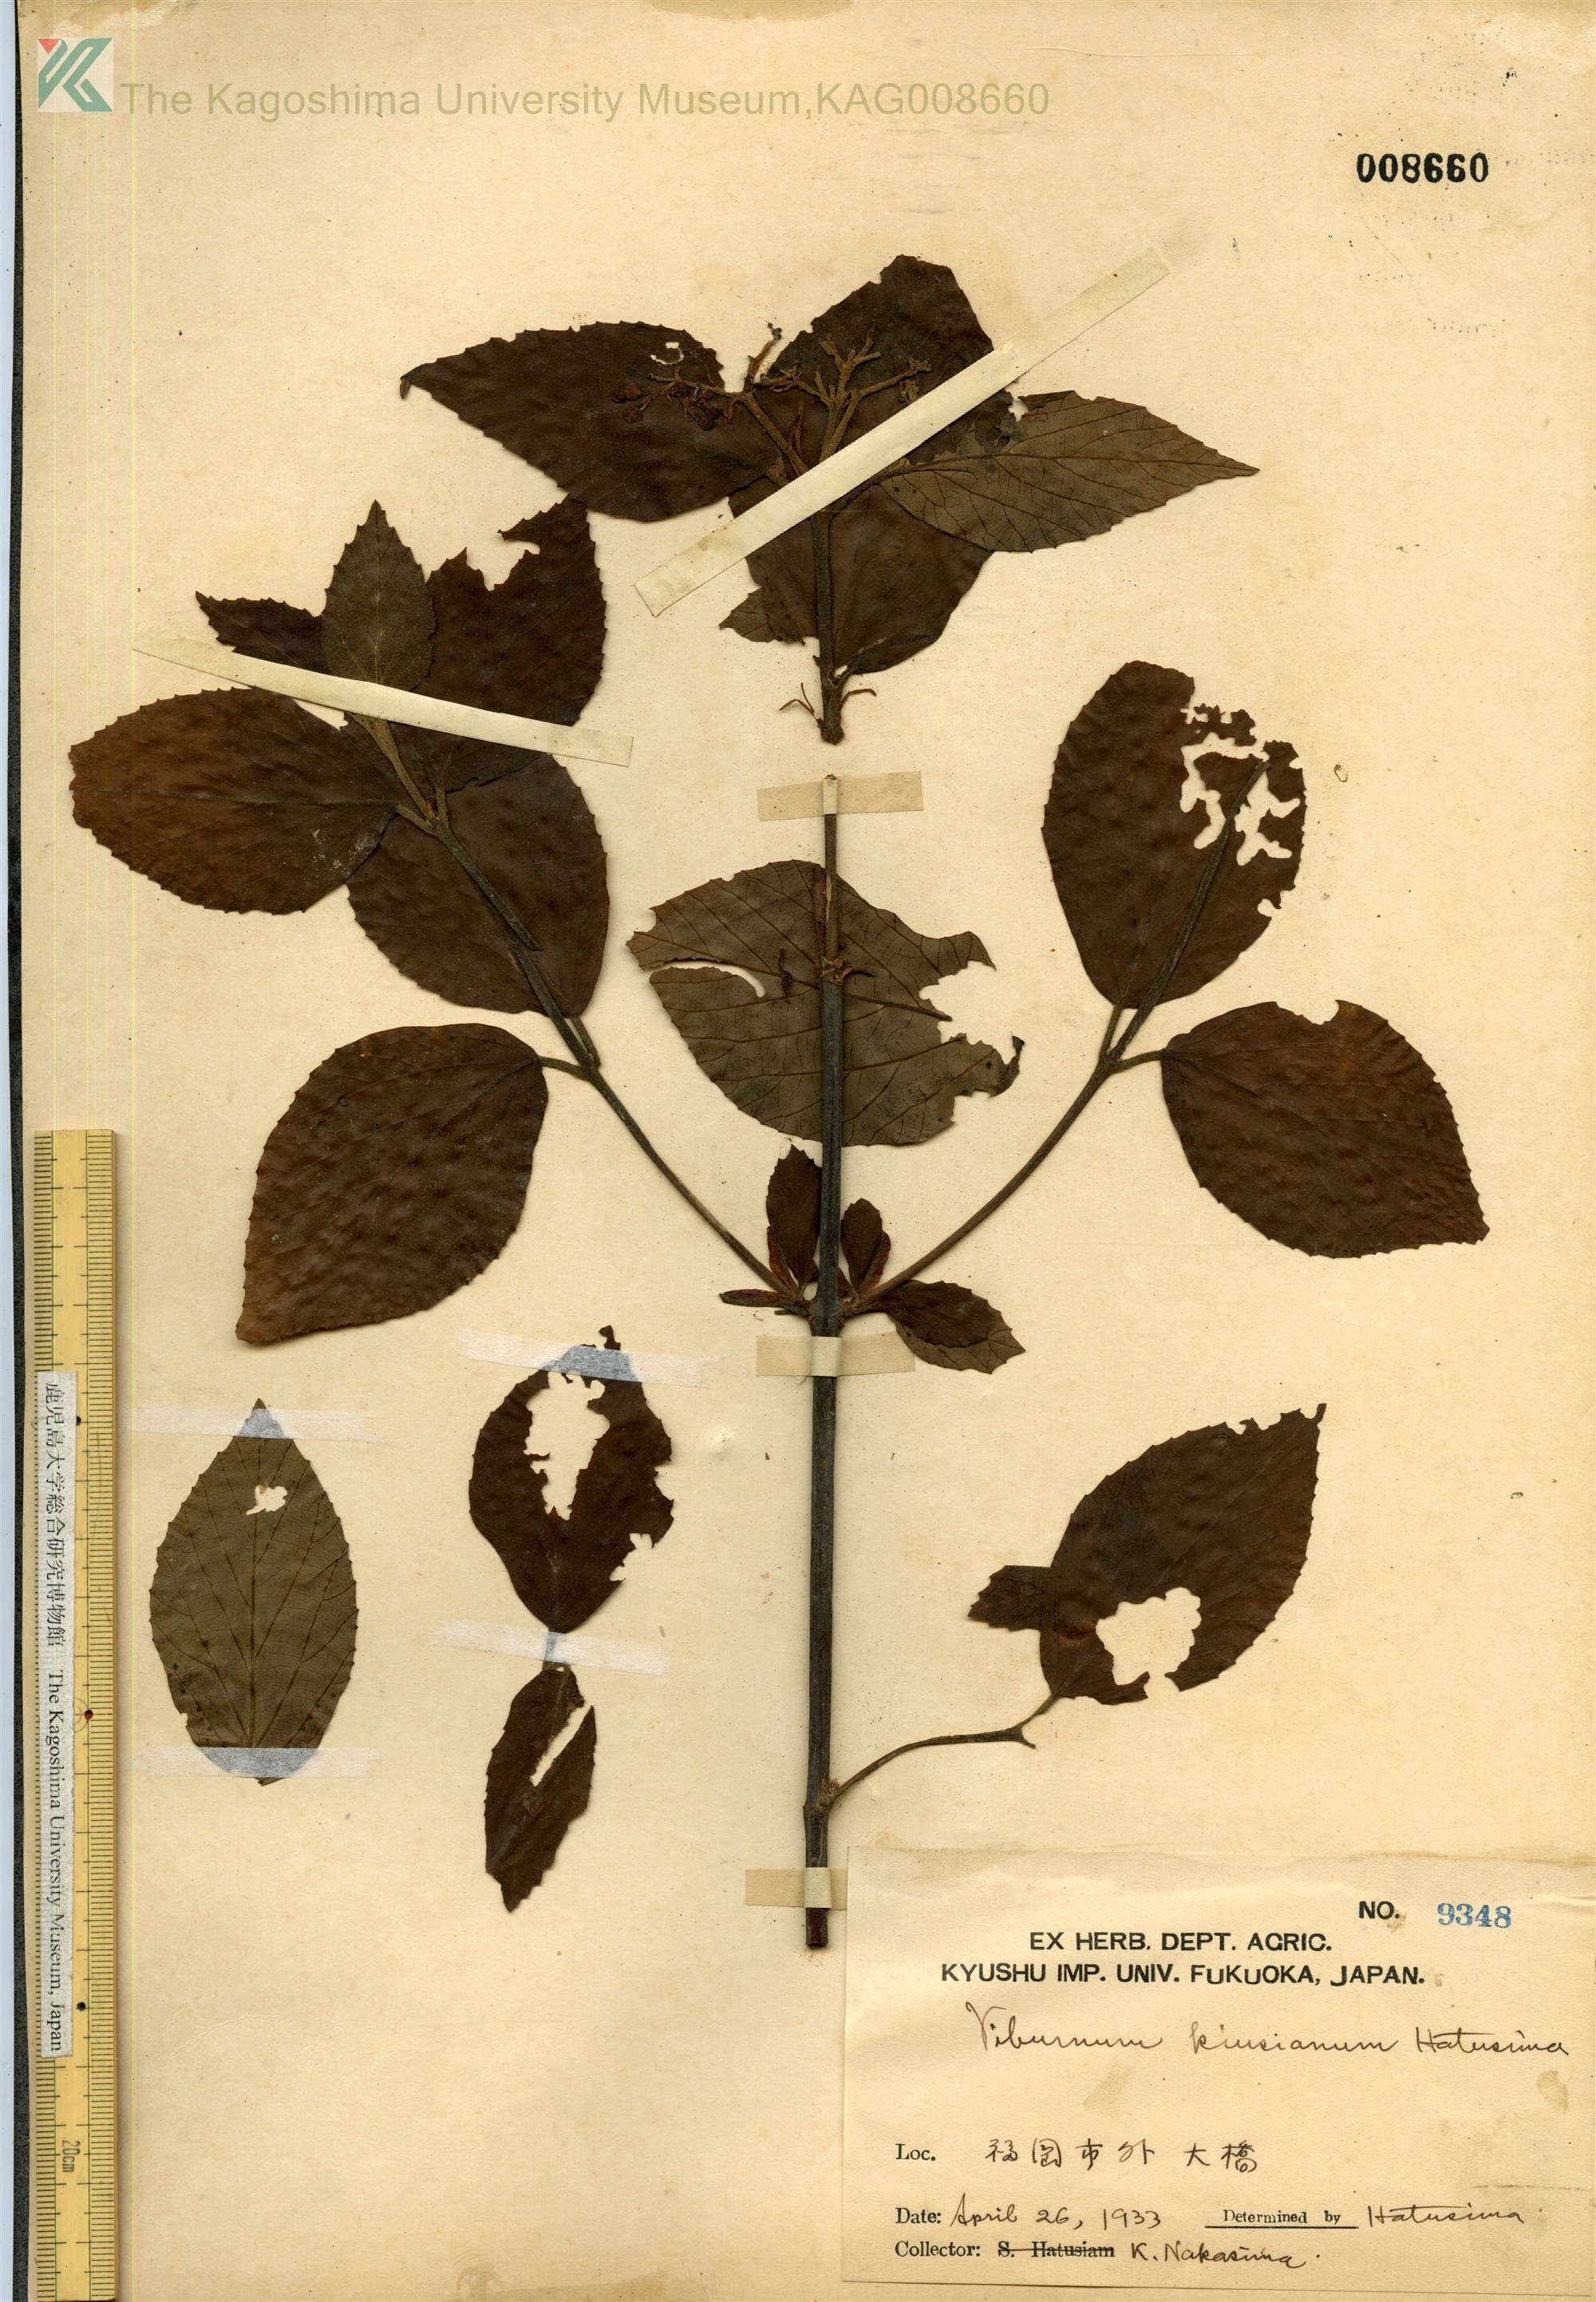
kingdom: Plantae
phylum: Tracheophyta
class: Magnoliopsida
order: Dipsacales
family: Viburnaceae
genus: Viburnum
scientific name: Viburnum kiusianum
